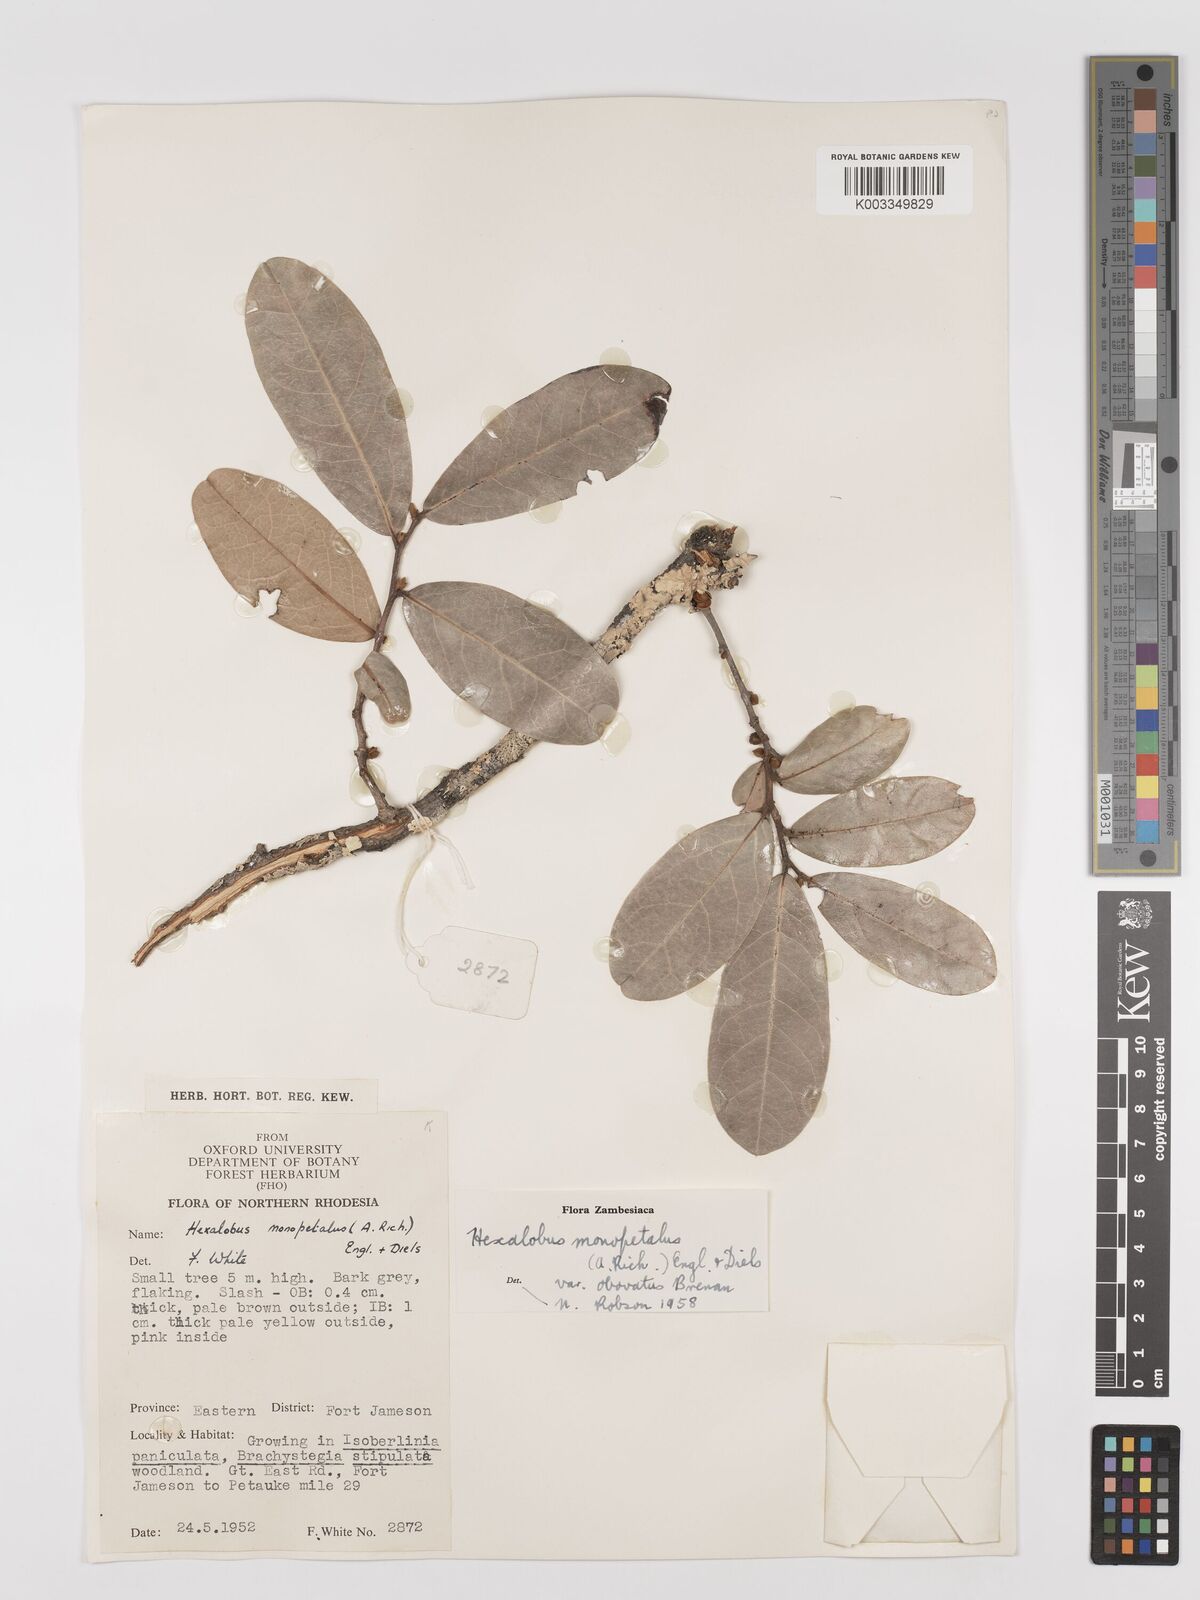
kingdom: Plantae
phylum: Tracheophyta
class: Magnoliopsida
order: Magnoliales
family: Annonaceae
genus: Hexalobus
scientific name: Hexalobus monopetalus
